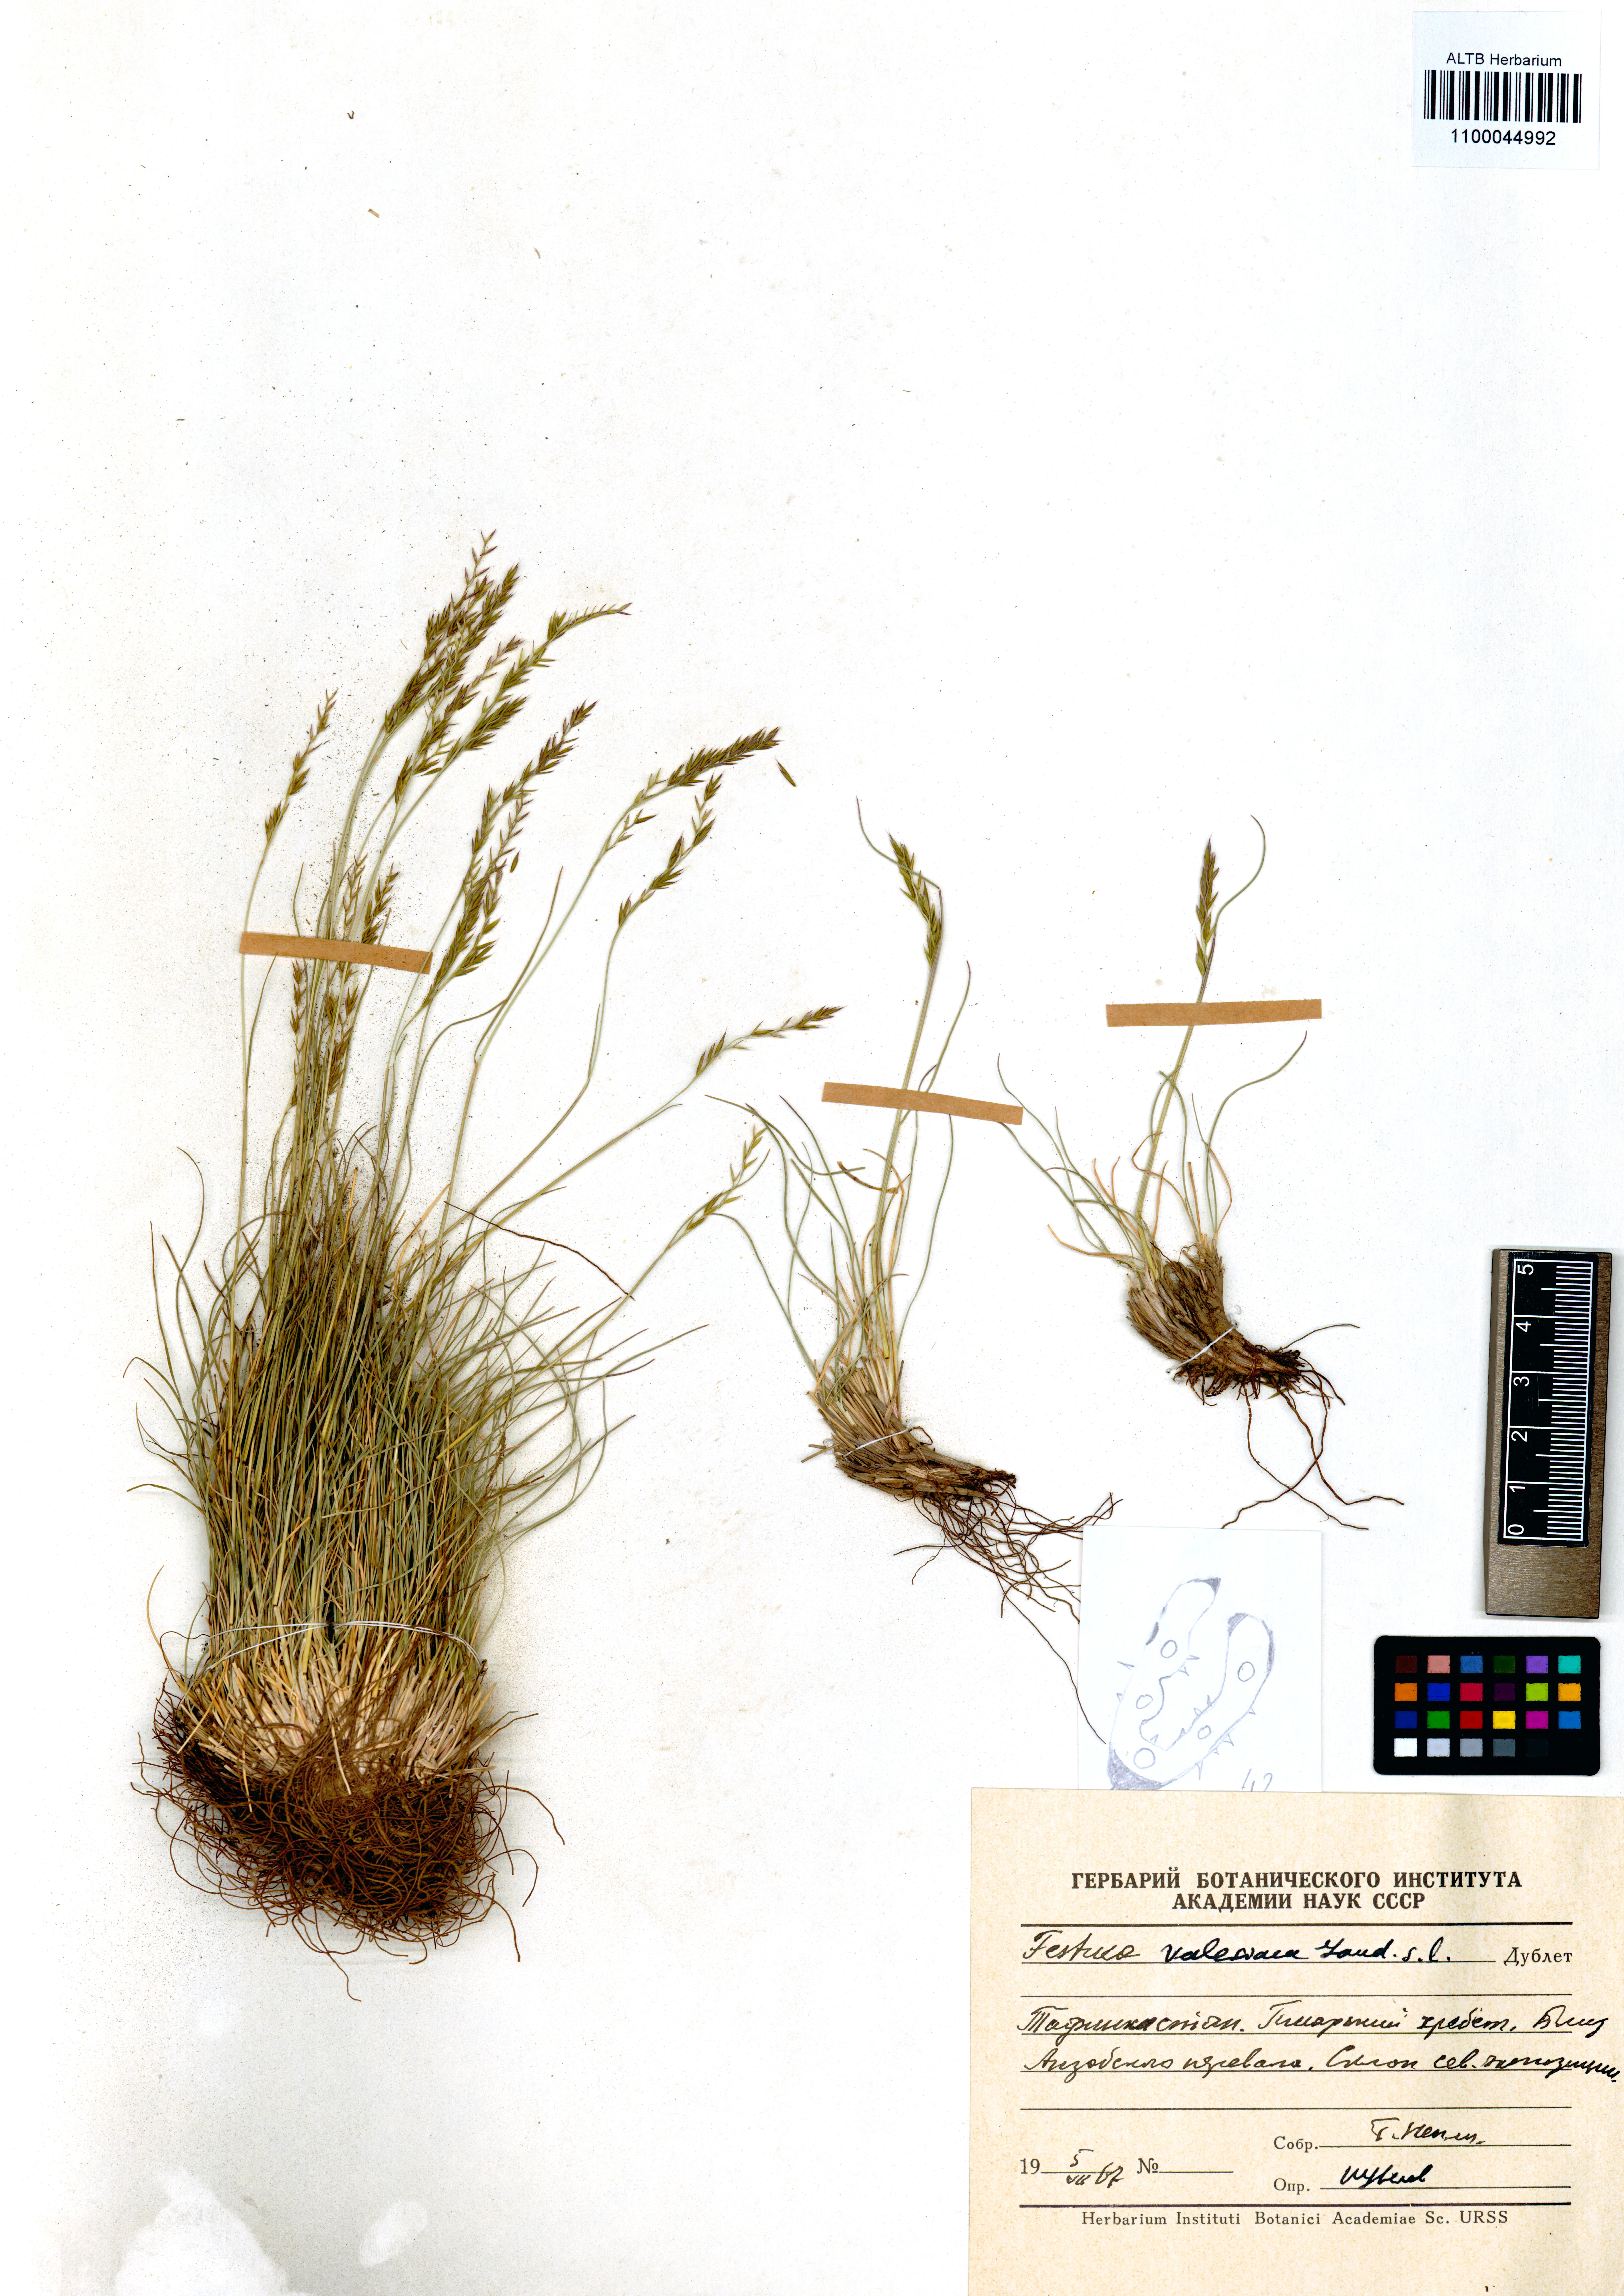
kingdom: Plantae
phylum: Tracheophyta
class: Liliopsida
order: Poales
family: Poaceae
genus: Festuca
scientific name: Festuca valesiaca
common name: Volga fescue
